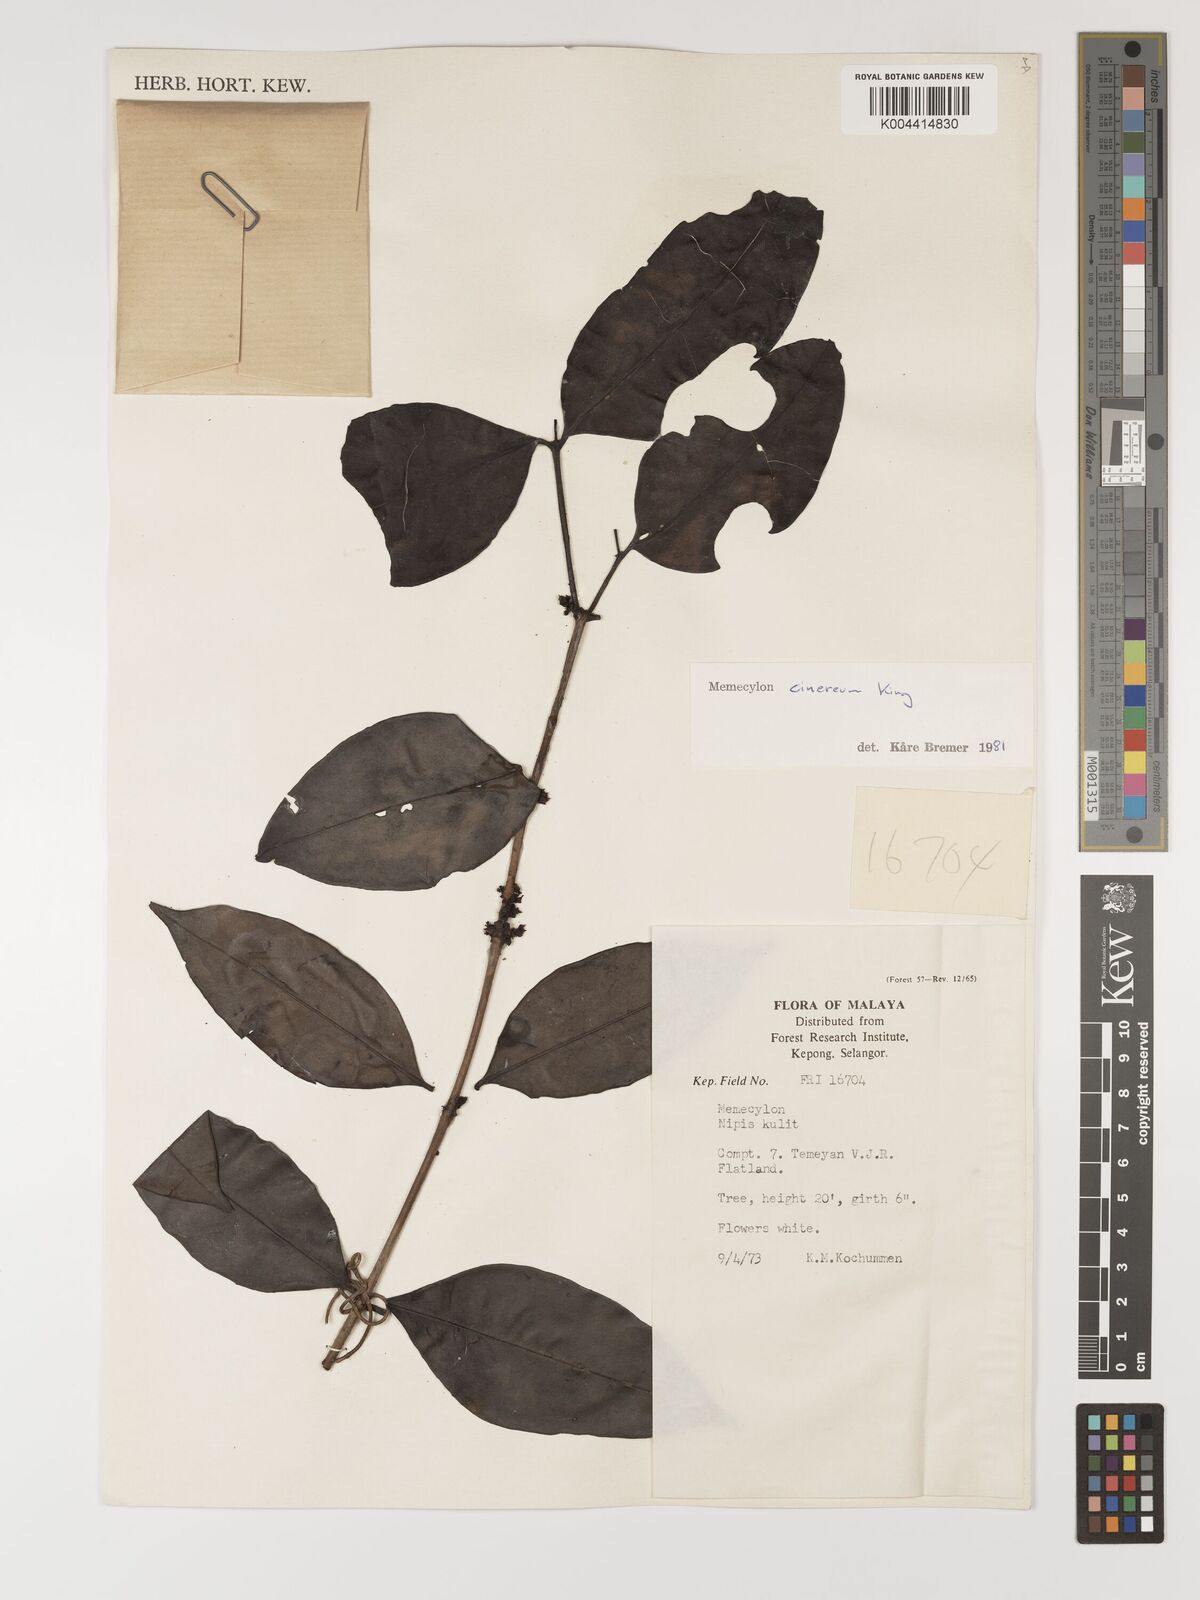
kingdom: Plantae
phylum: Tracheophyta
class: Magnoliopsida
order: Myrtales
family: Melastomataceae
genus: Memecylon
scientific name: Memecylon cinereum
